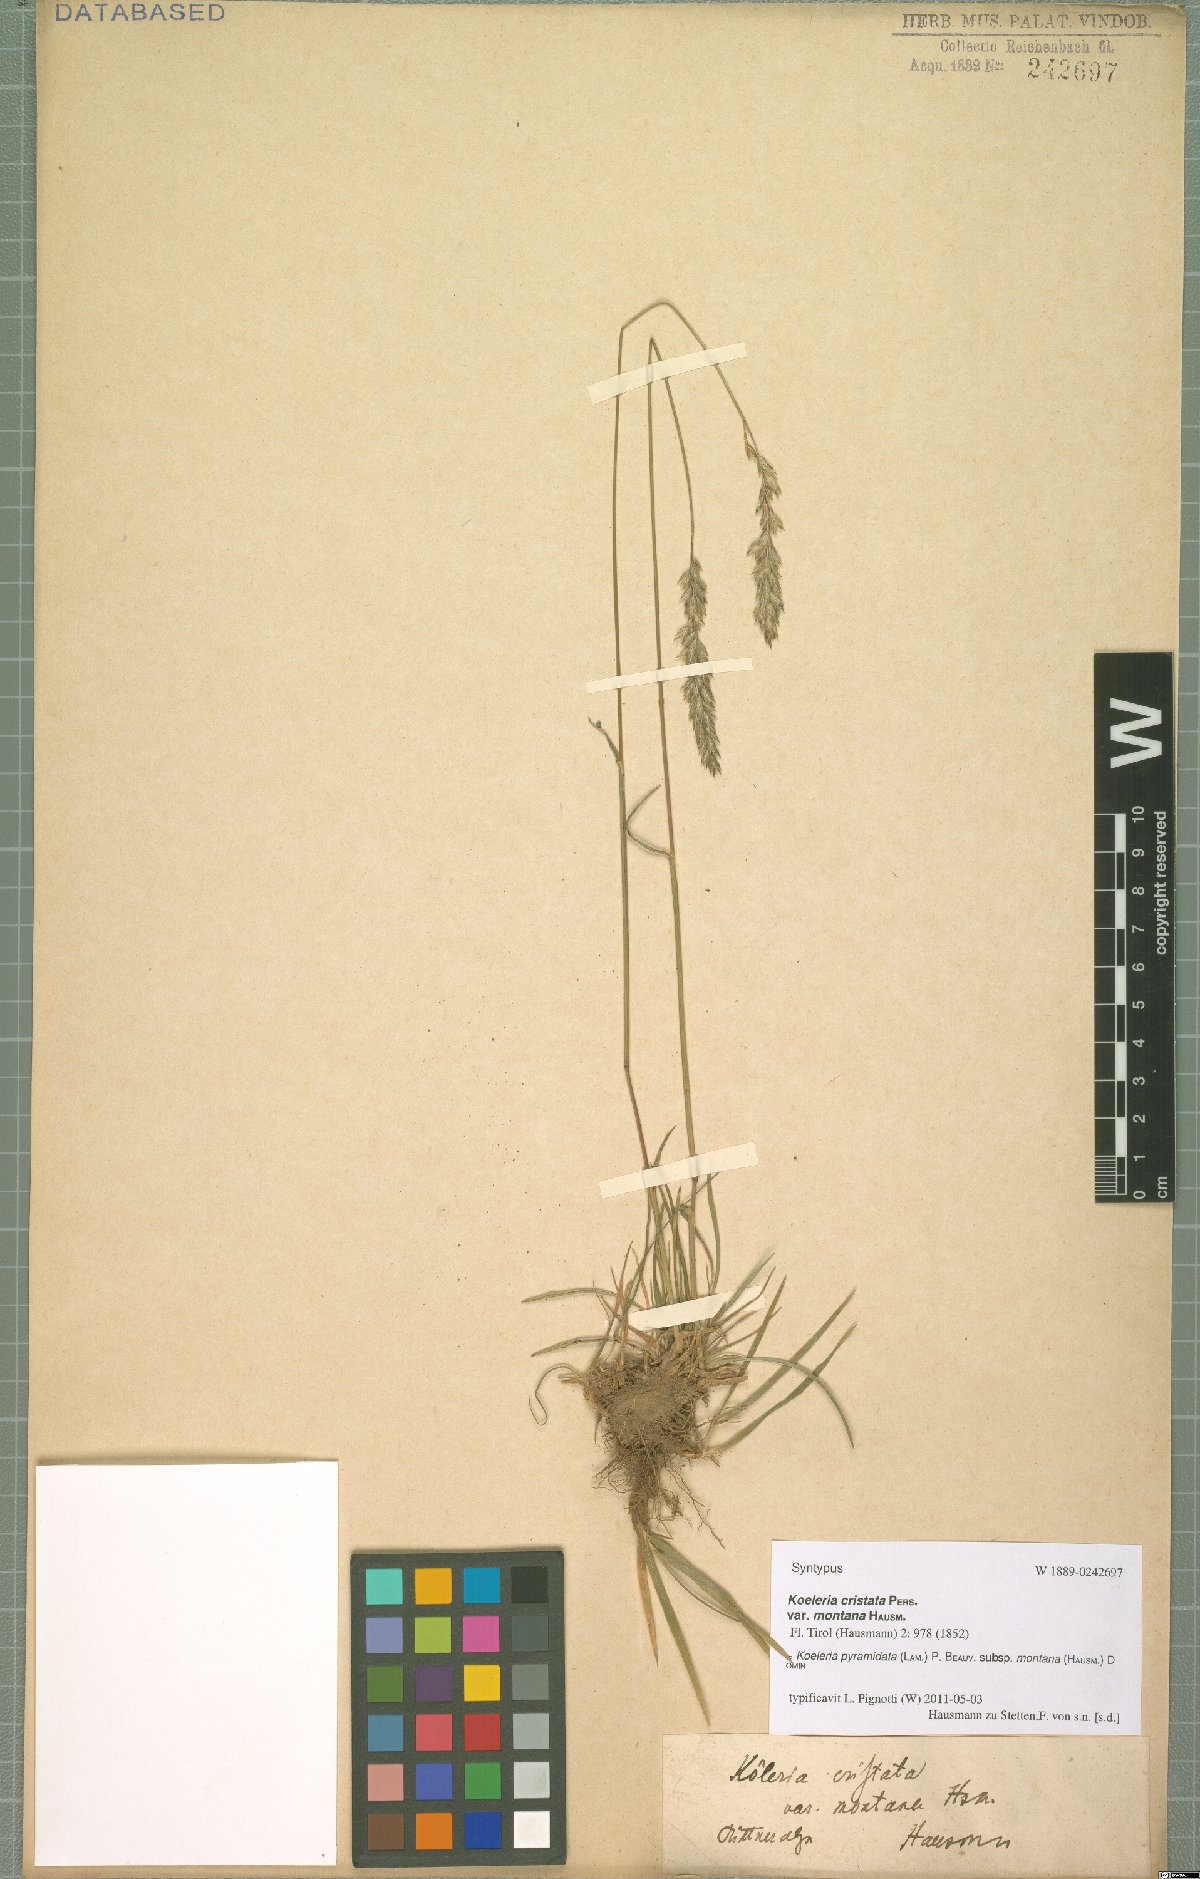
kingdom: Plantae
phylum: Tracheophyta
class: Liliopsida
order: Poales
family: Poaceae
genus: Koeleria
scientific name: Koeleria pyramidata
